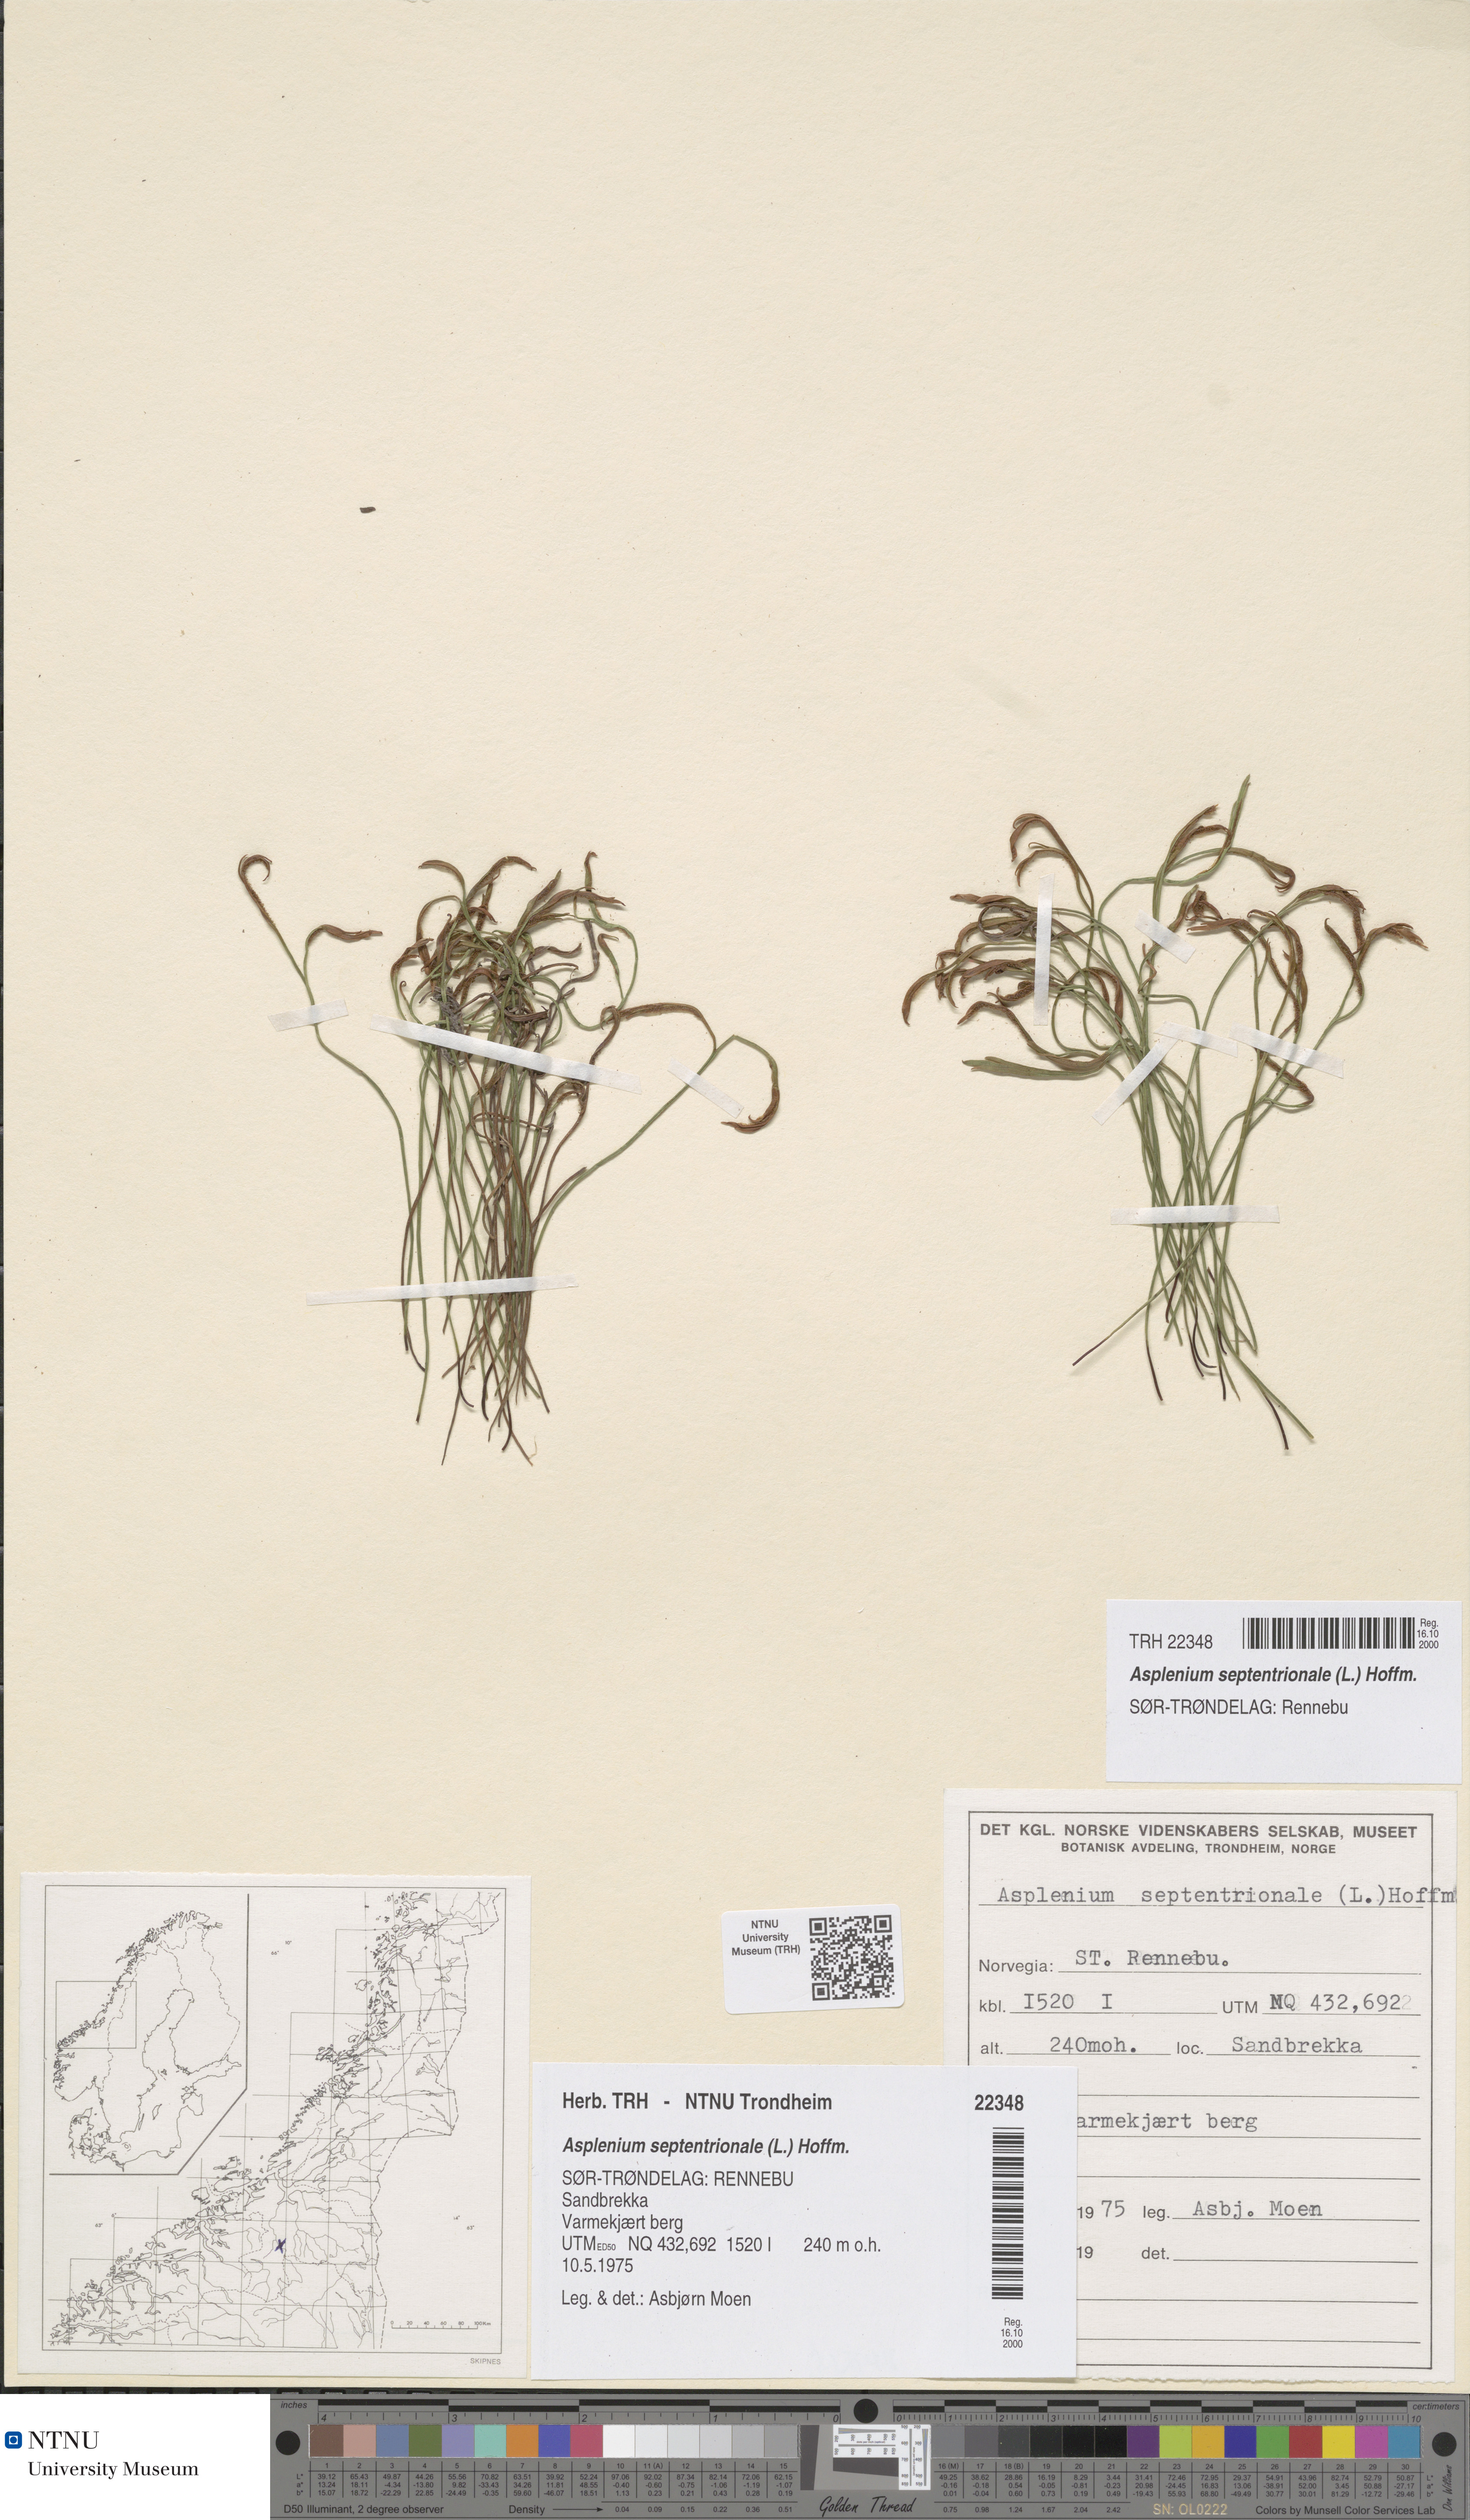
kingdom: Plantae
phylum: Tracheophyta
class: Polypodiopsida
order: Polypodiales
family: Aspleniaceae
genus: Asplenium
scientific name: Asplenium septentrionale
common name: Forked spleenwort
